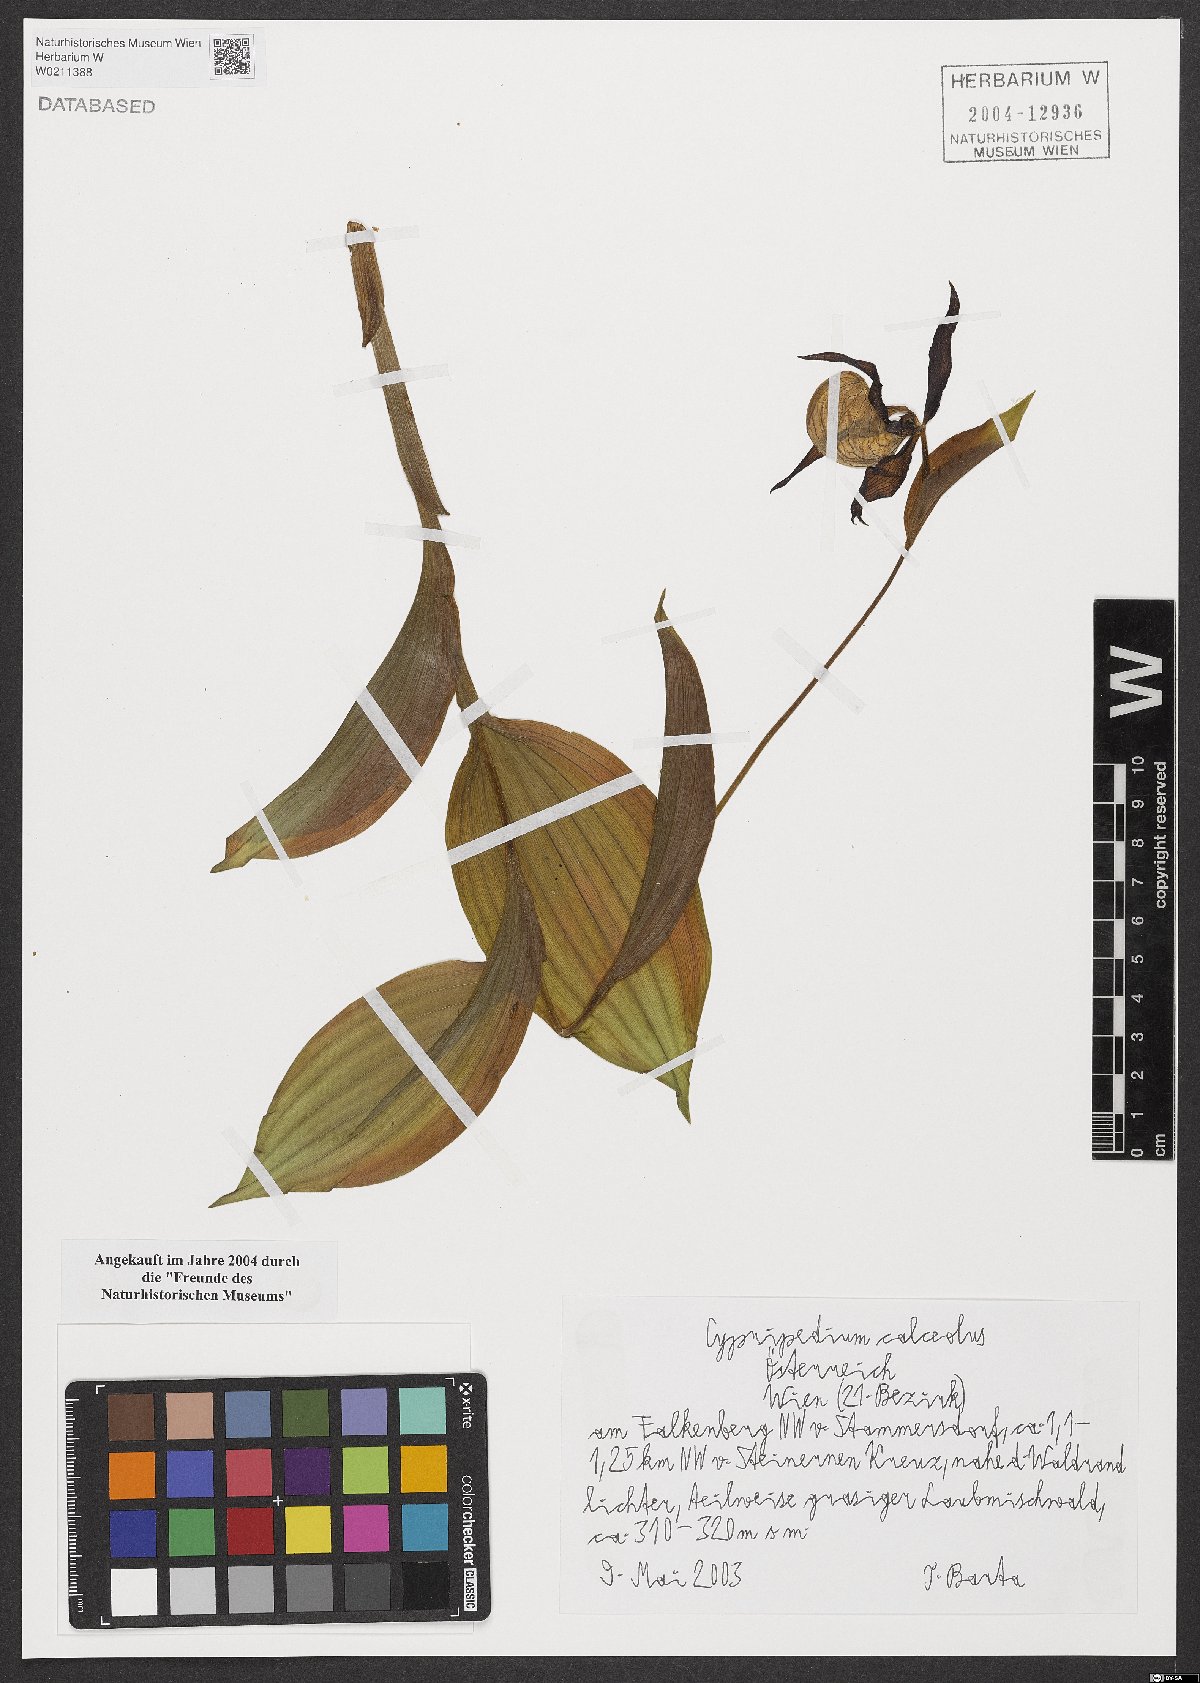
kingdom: Plantae
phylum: Tracheophyta
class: Liliopsida
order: Asparagales
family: Orchidaceae
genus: Cypripedium
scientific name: Cypripedium calceolus
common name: Lady's-slipper
